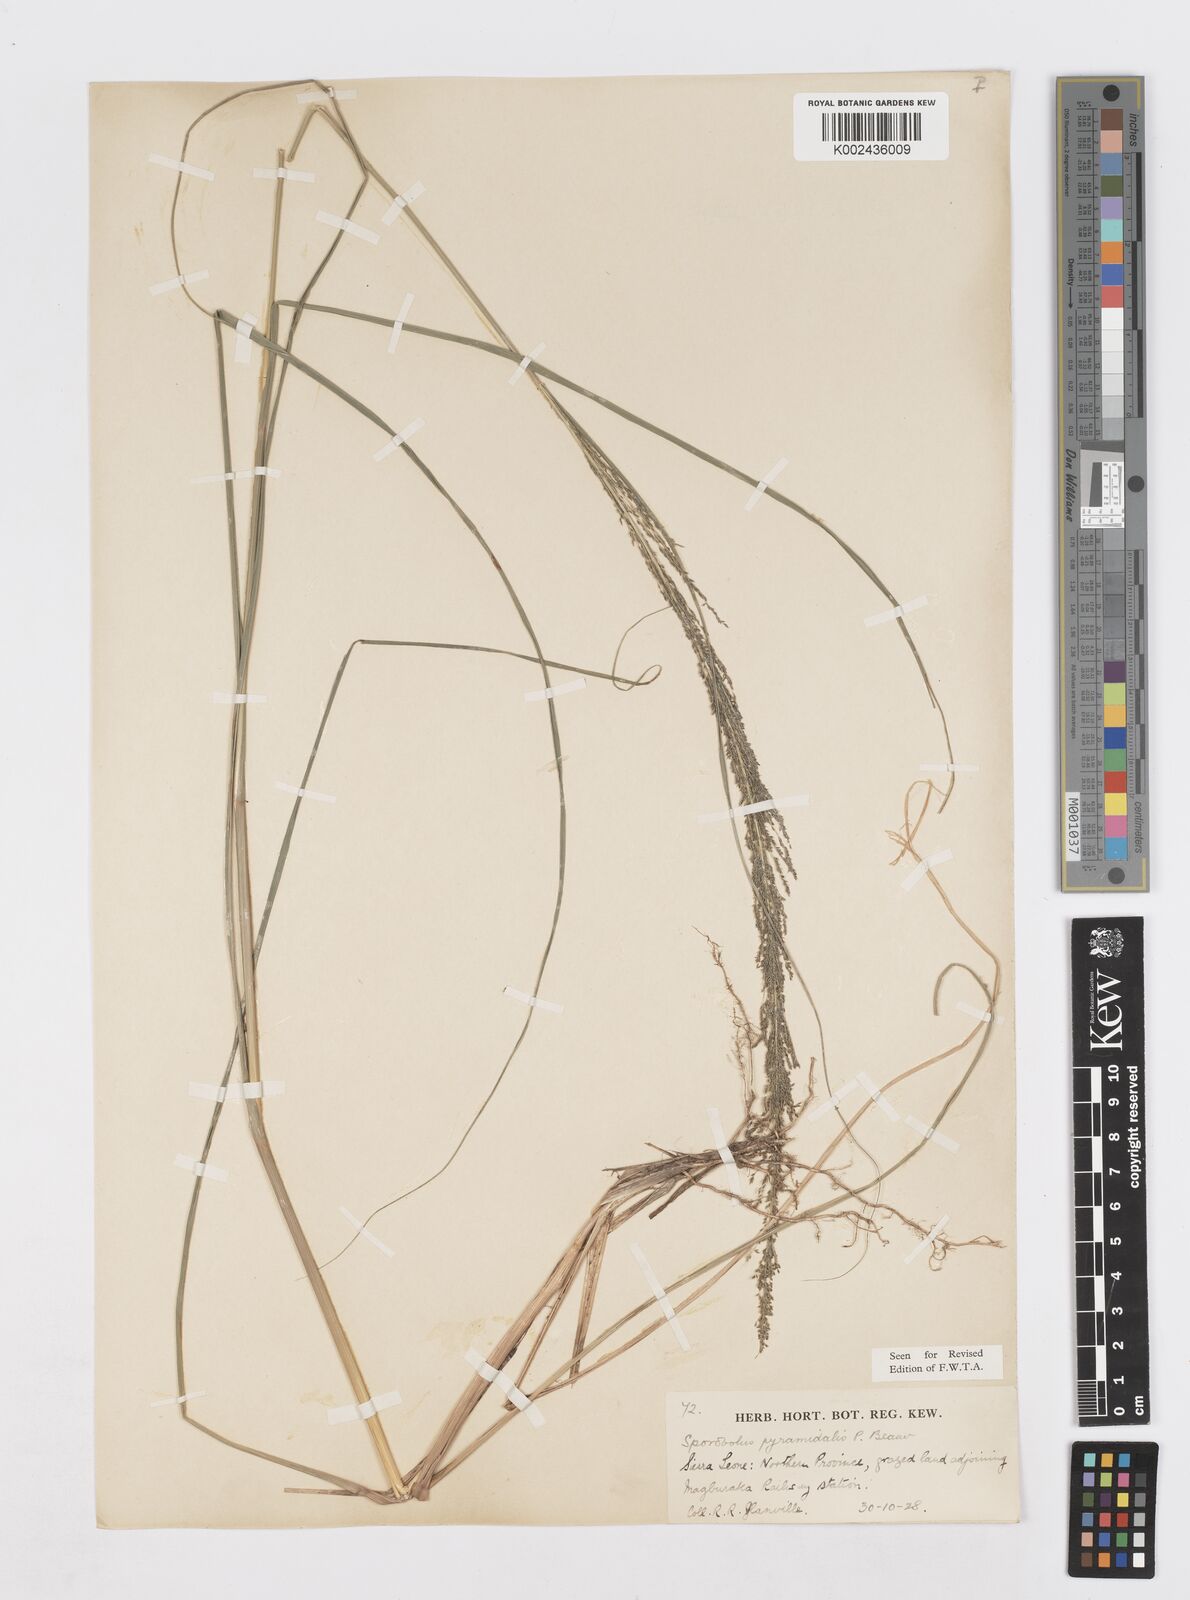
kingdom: Plantae
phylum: Tracheophyta
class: Liliopsida
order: Poales
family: Poaceae
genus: Sporobolus
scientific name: Sporobolus pyramidalis
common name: West indian dropseed
